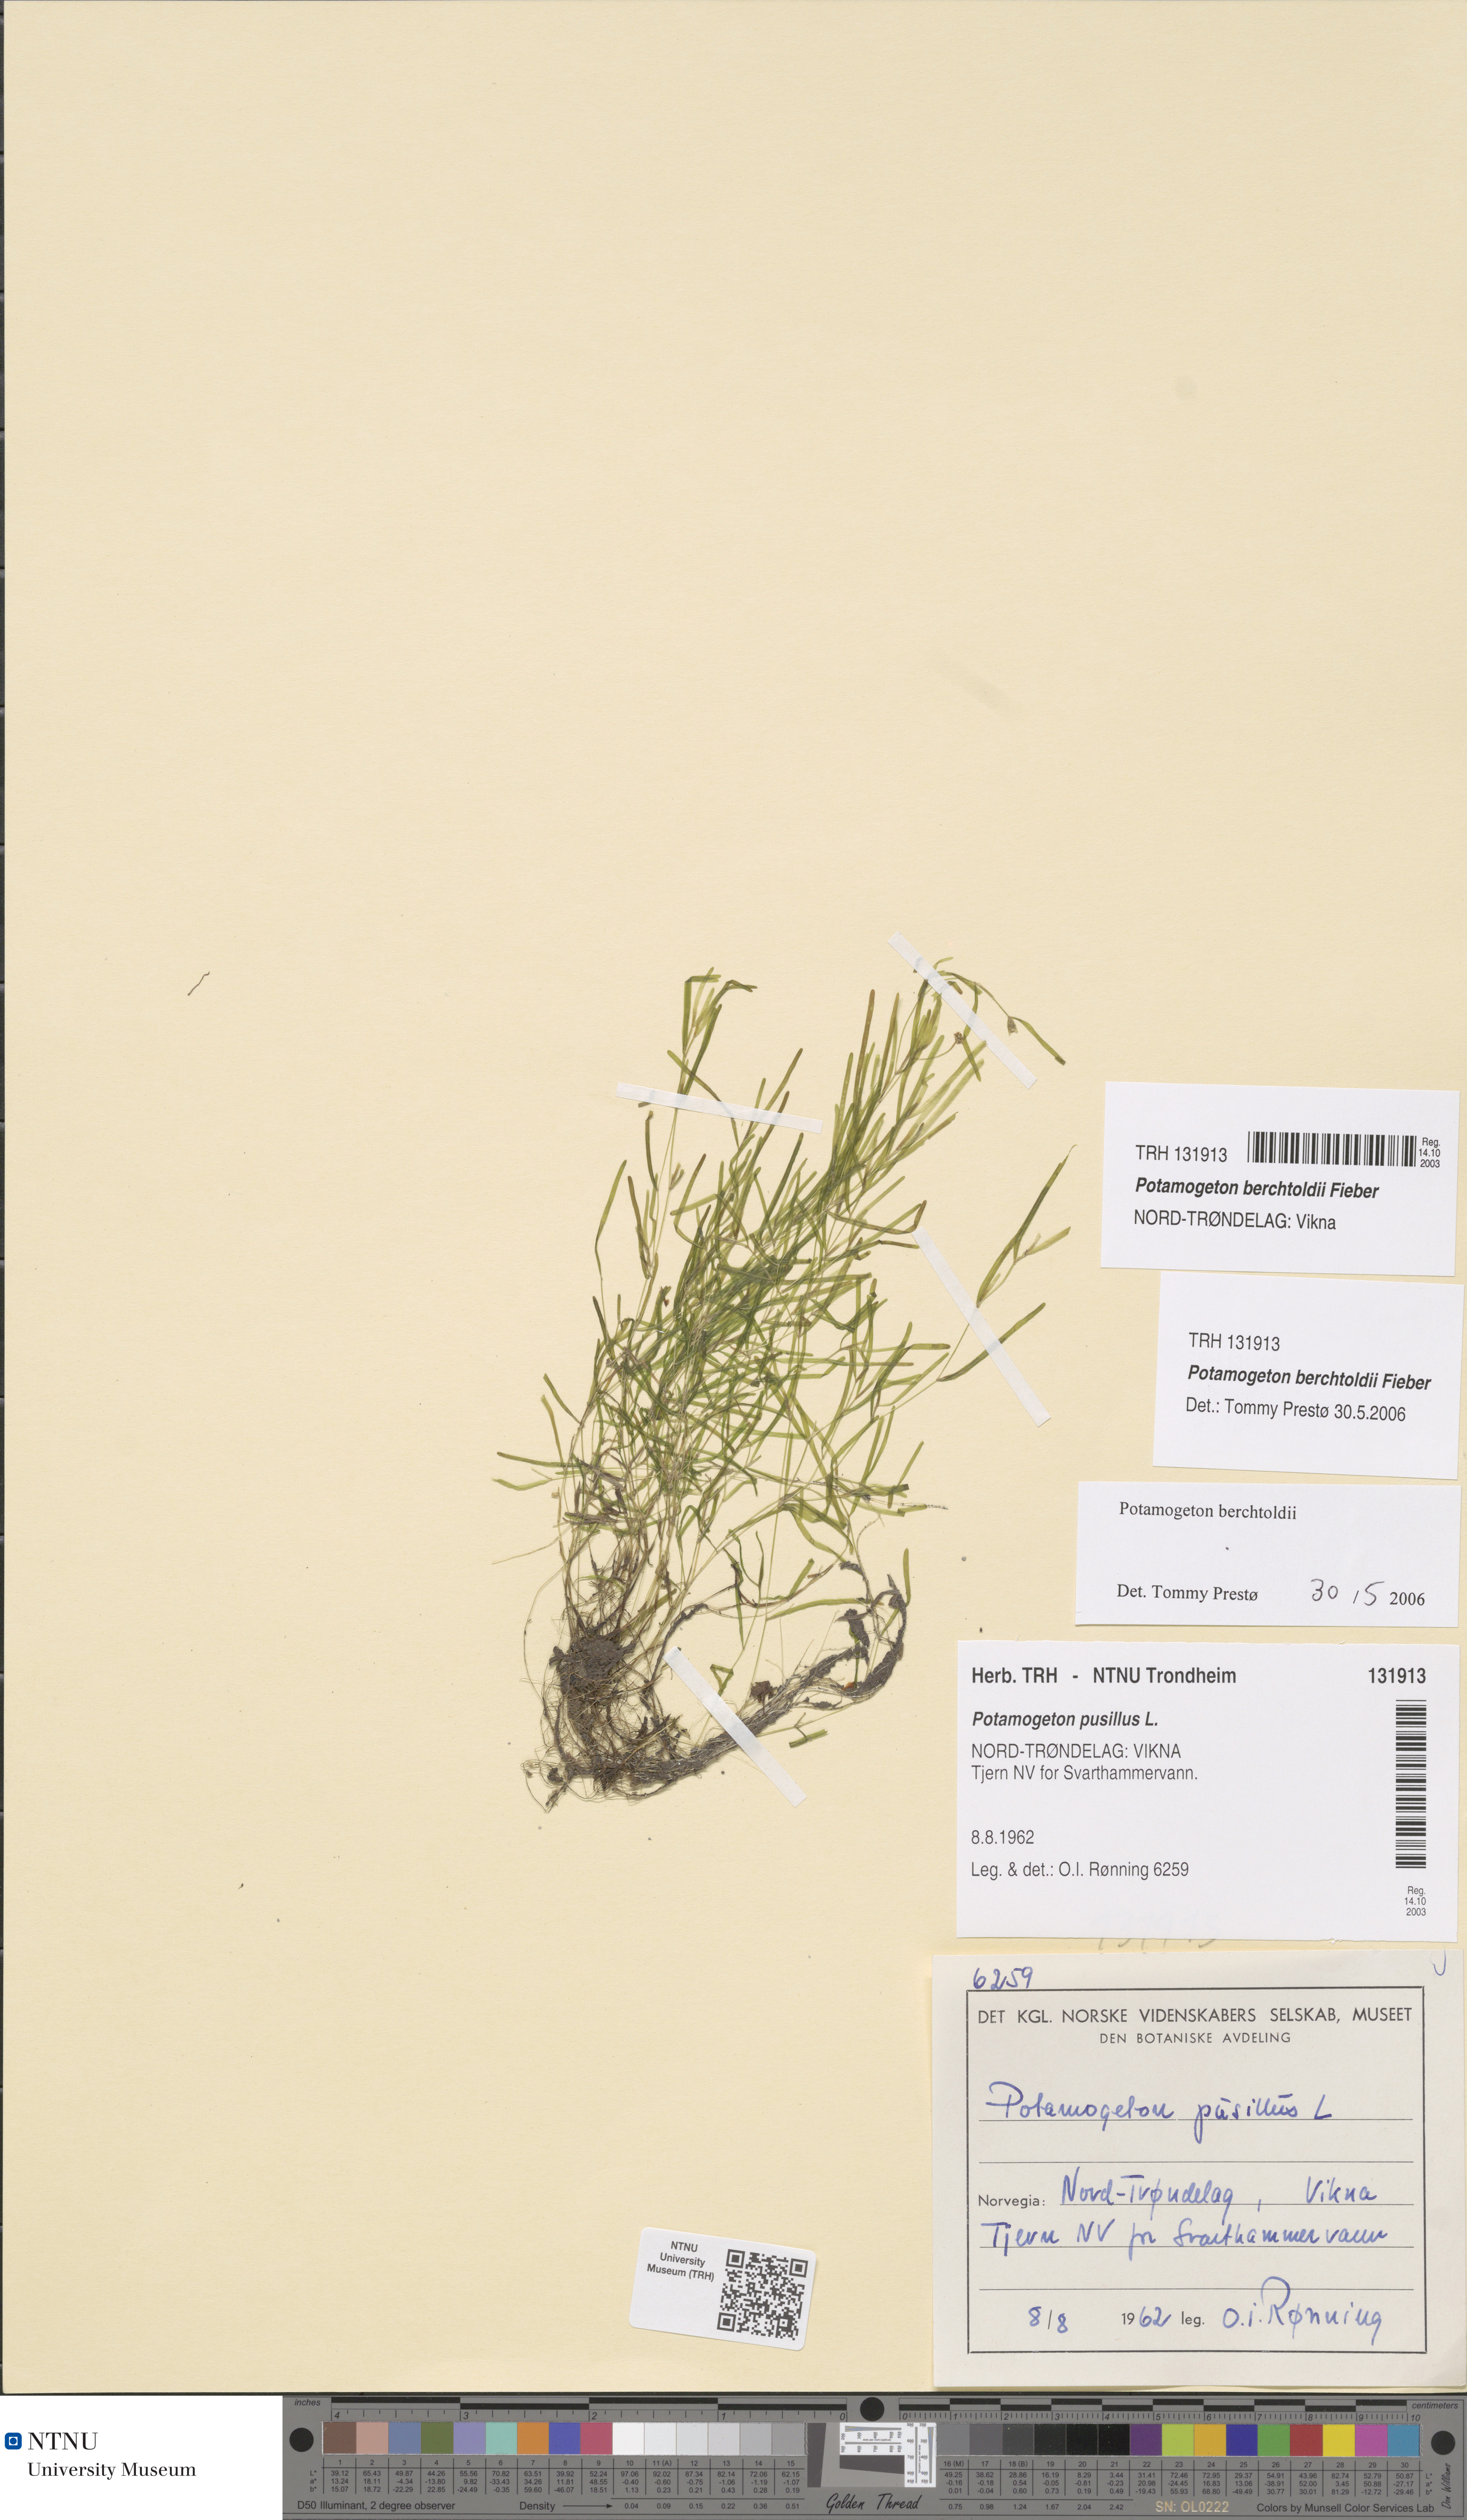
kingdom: Plantae
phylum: Tracheophyta
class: Liliopsida
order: Alismatales
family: Potamogetonaceae
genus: Potamogeton
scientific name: Potamogeton berchtoldii
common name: Small pondweed
